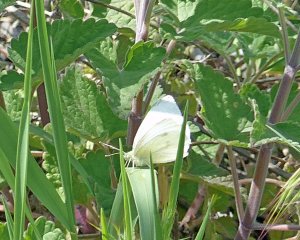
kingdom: Animalia
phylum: Arthropoda
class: Insecta
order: Lepidoptera
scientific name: Lepidoptera
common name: Butterflies
